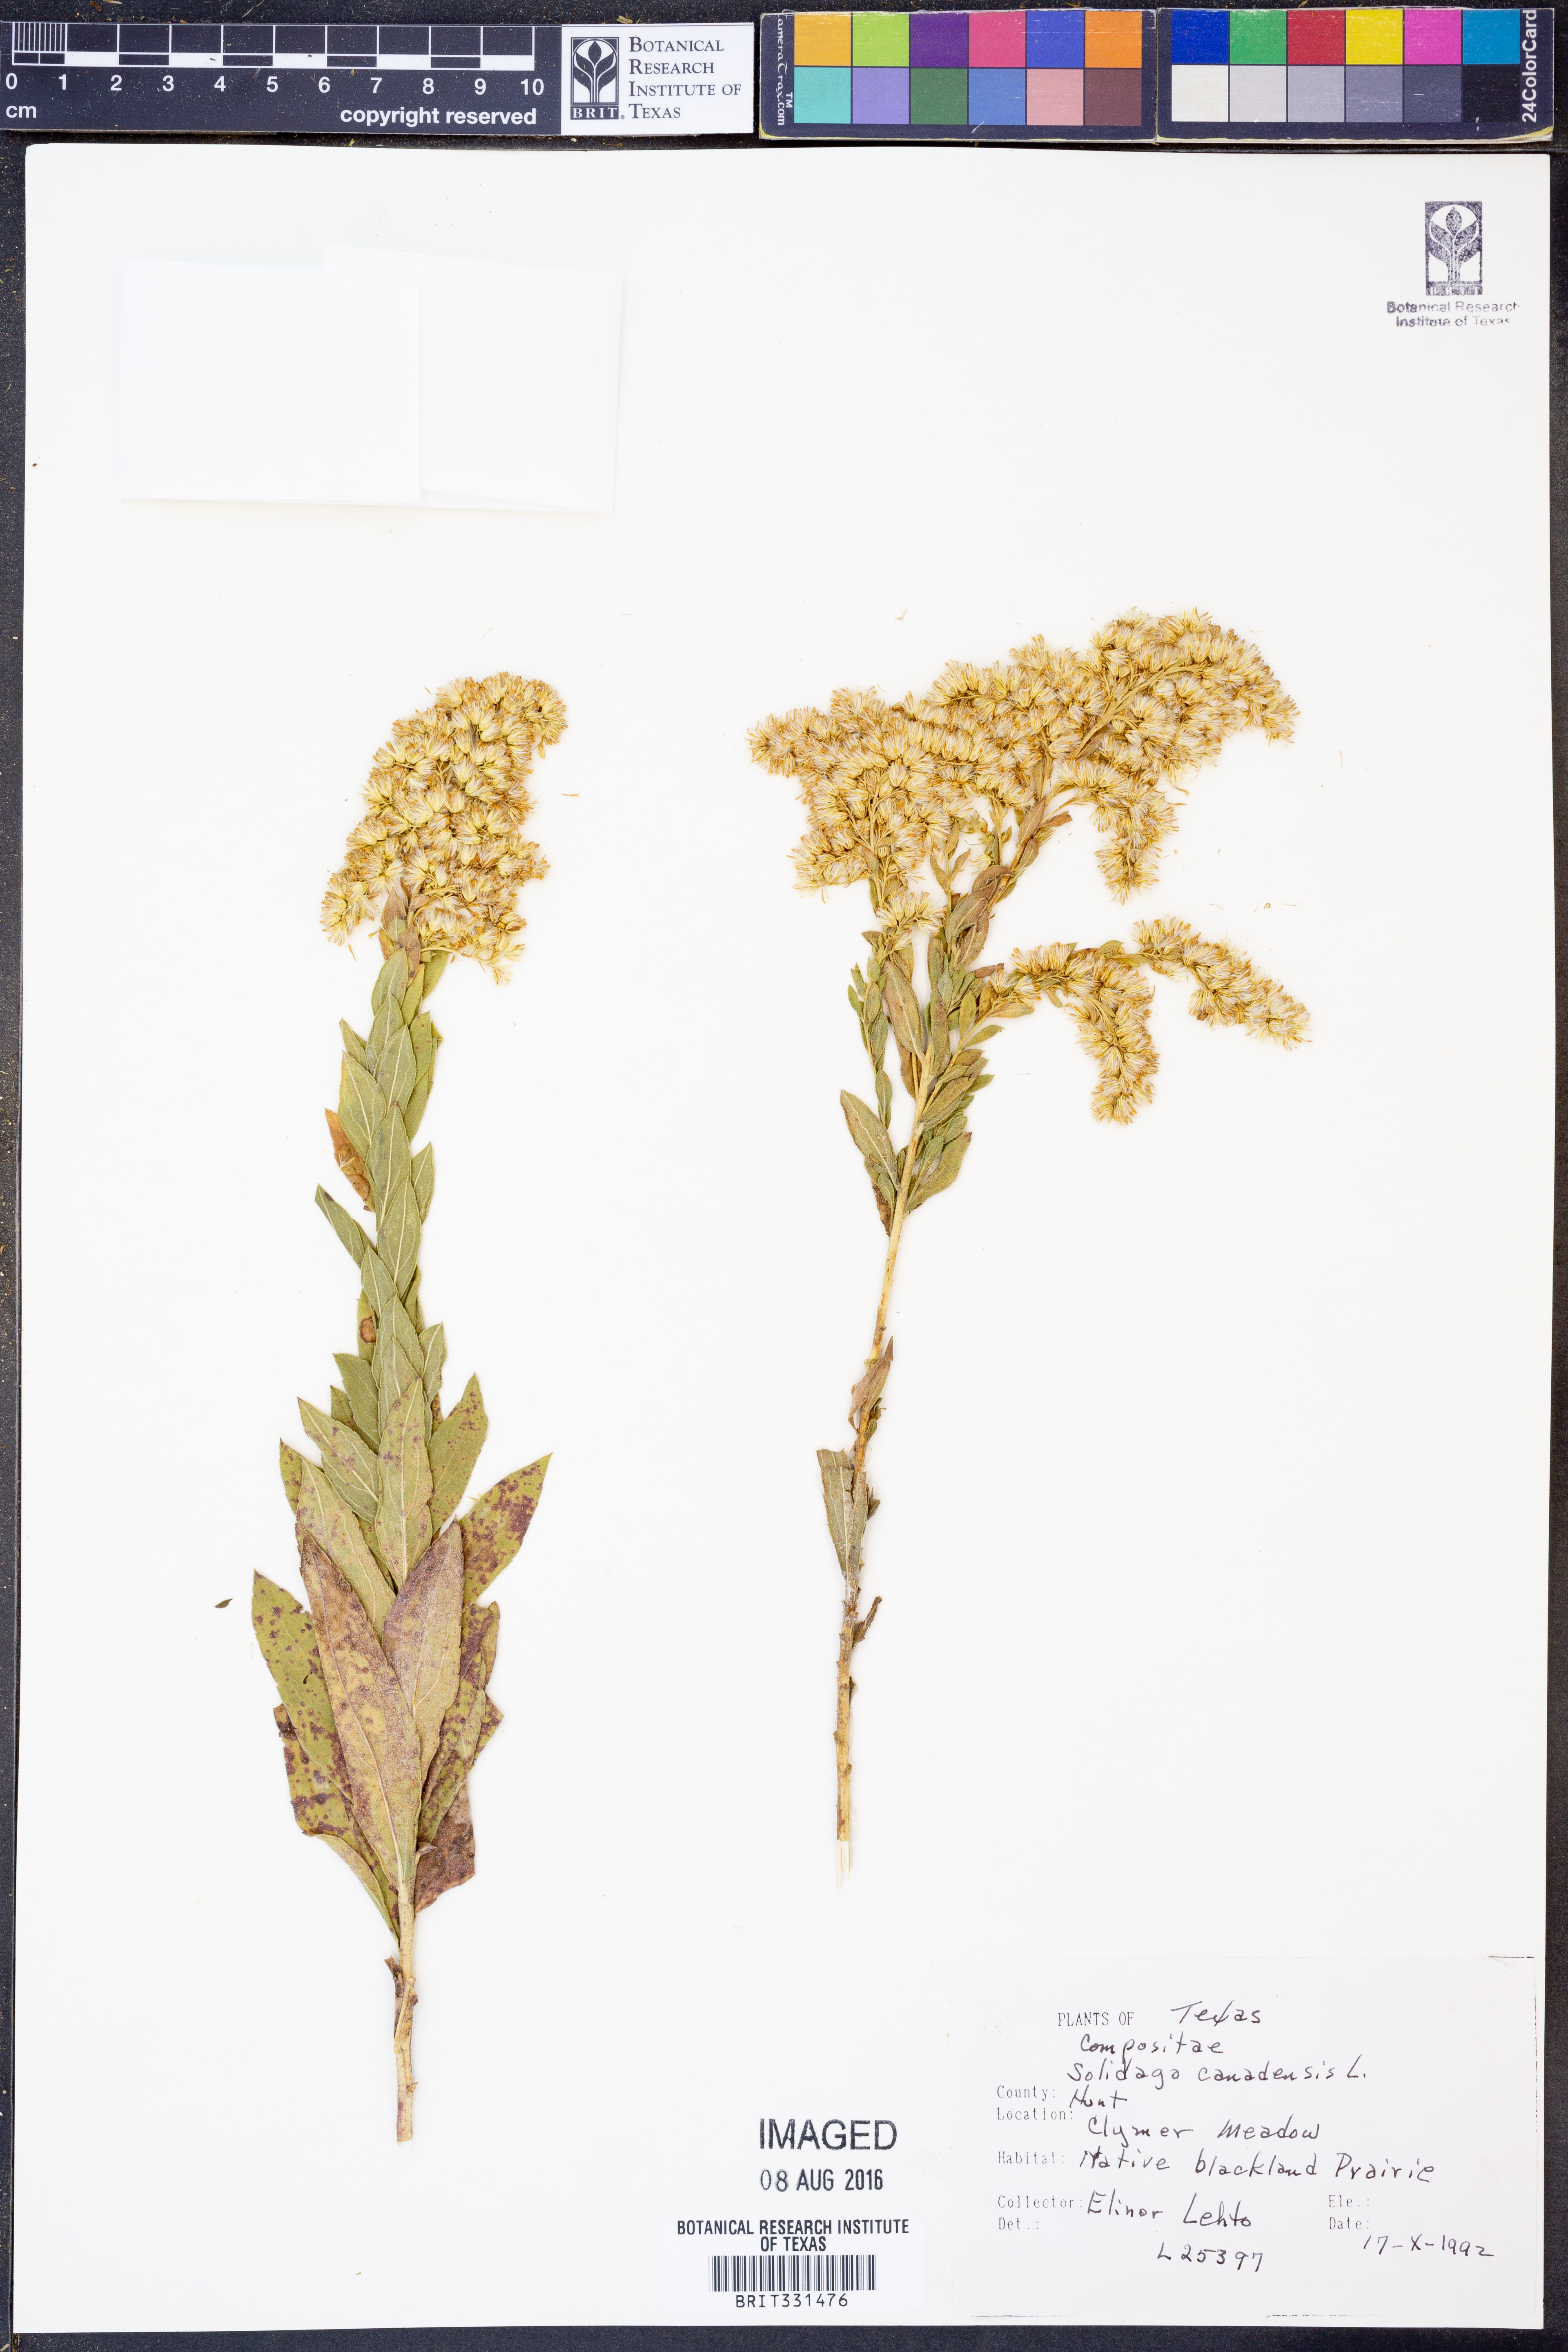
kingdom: Plantae
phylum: Tracheophyta
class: Magnoliopsida
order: Asterales
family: Asteraceae
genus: Solidago
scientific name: Solidago canadensis
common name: Canada goldenrod
